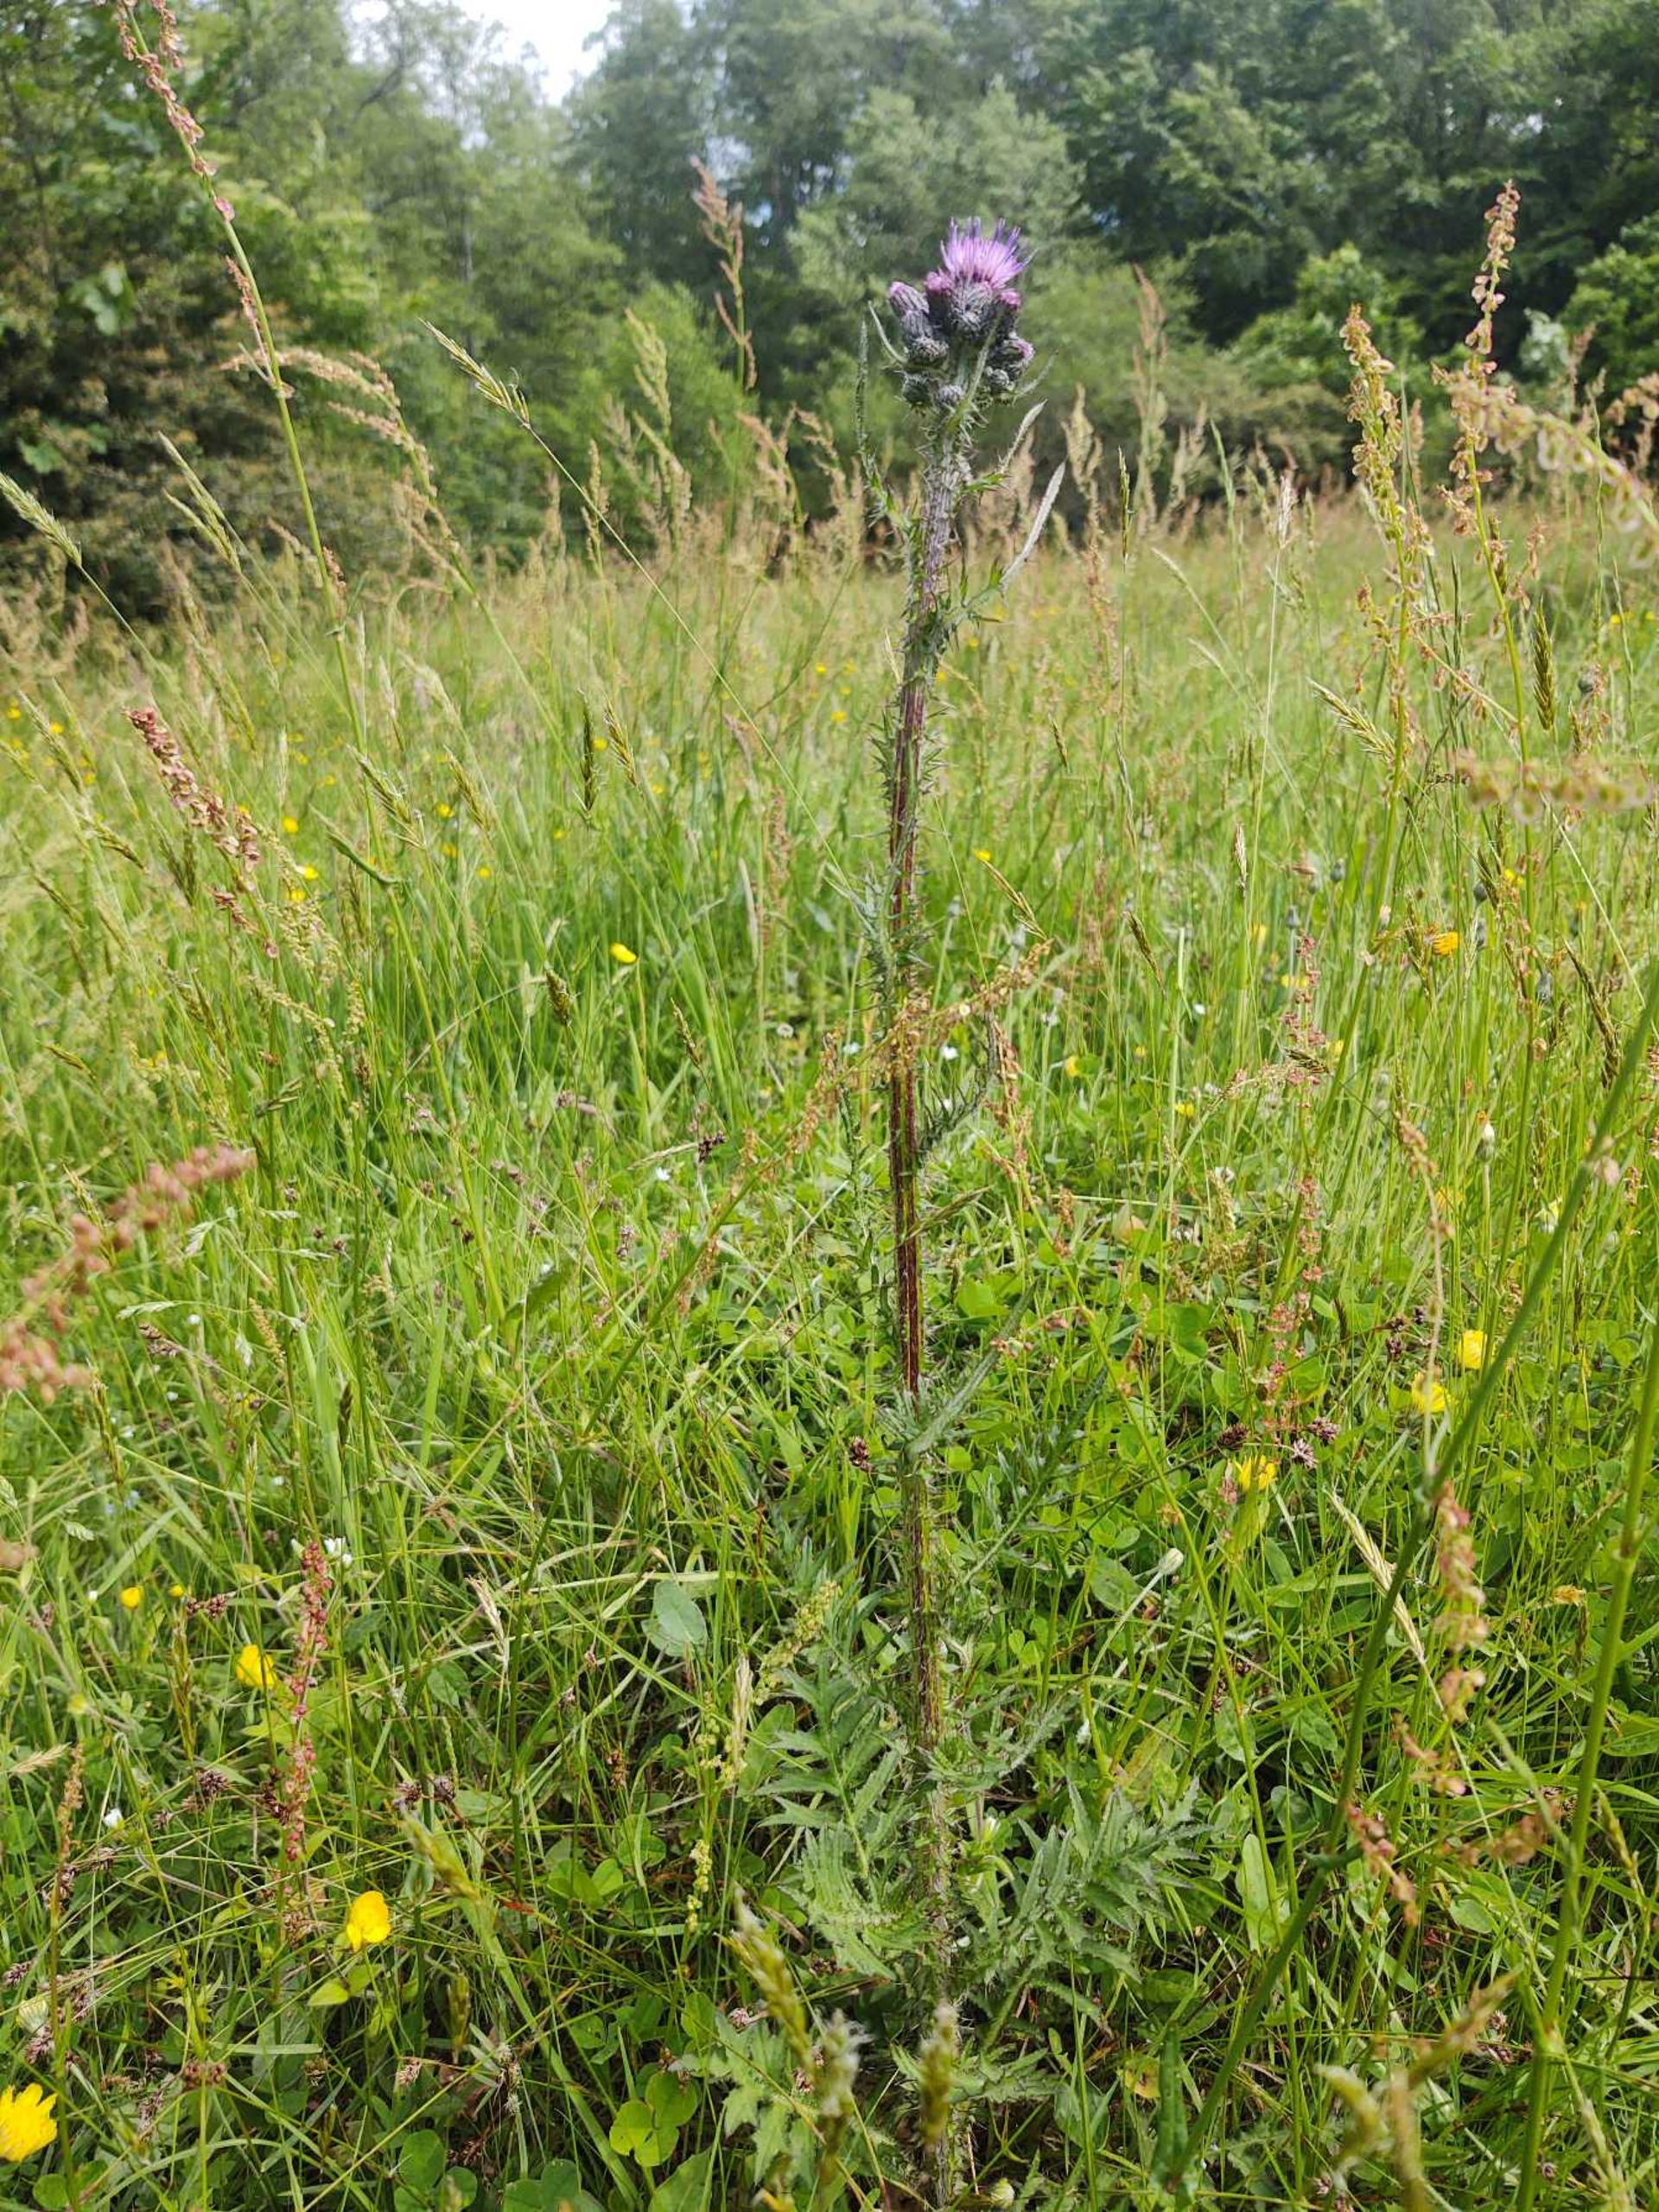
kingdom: Plantae
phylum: Tracheophyta
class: Magnoliopsida
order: Asterales
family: Asteraceae
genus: Cirsium
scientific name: Cirsium palustre
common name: Kær-tidsel
